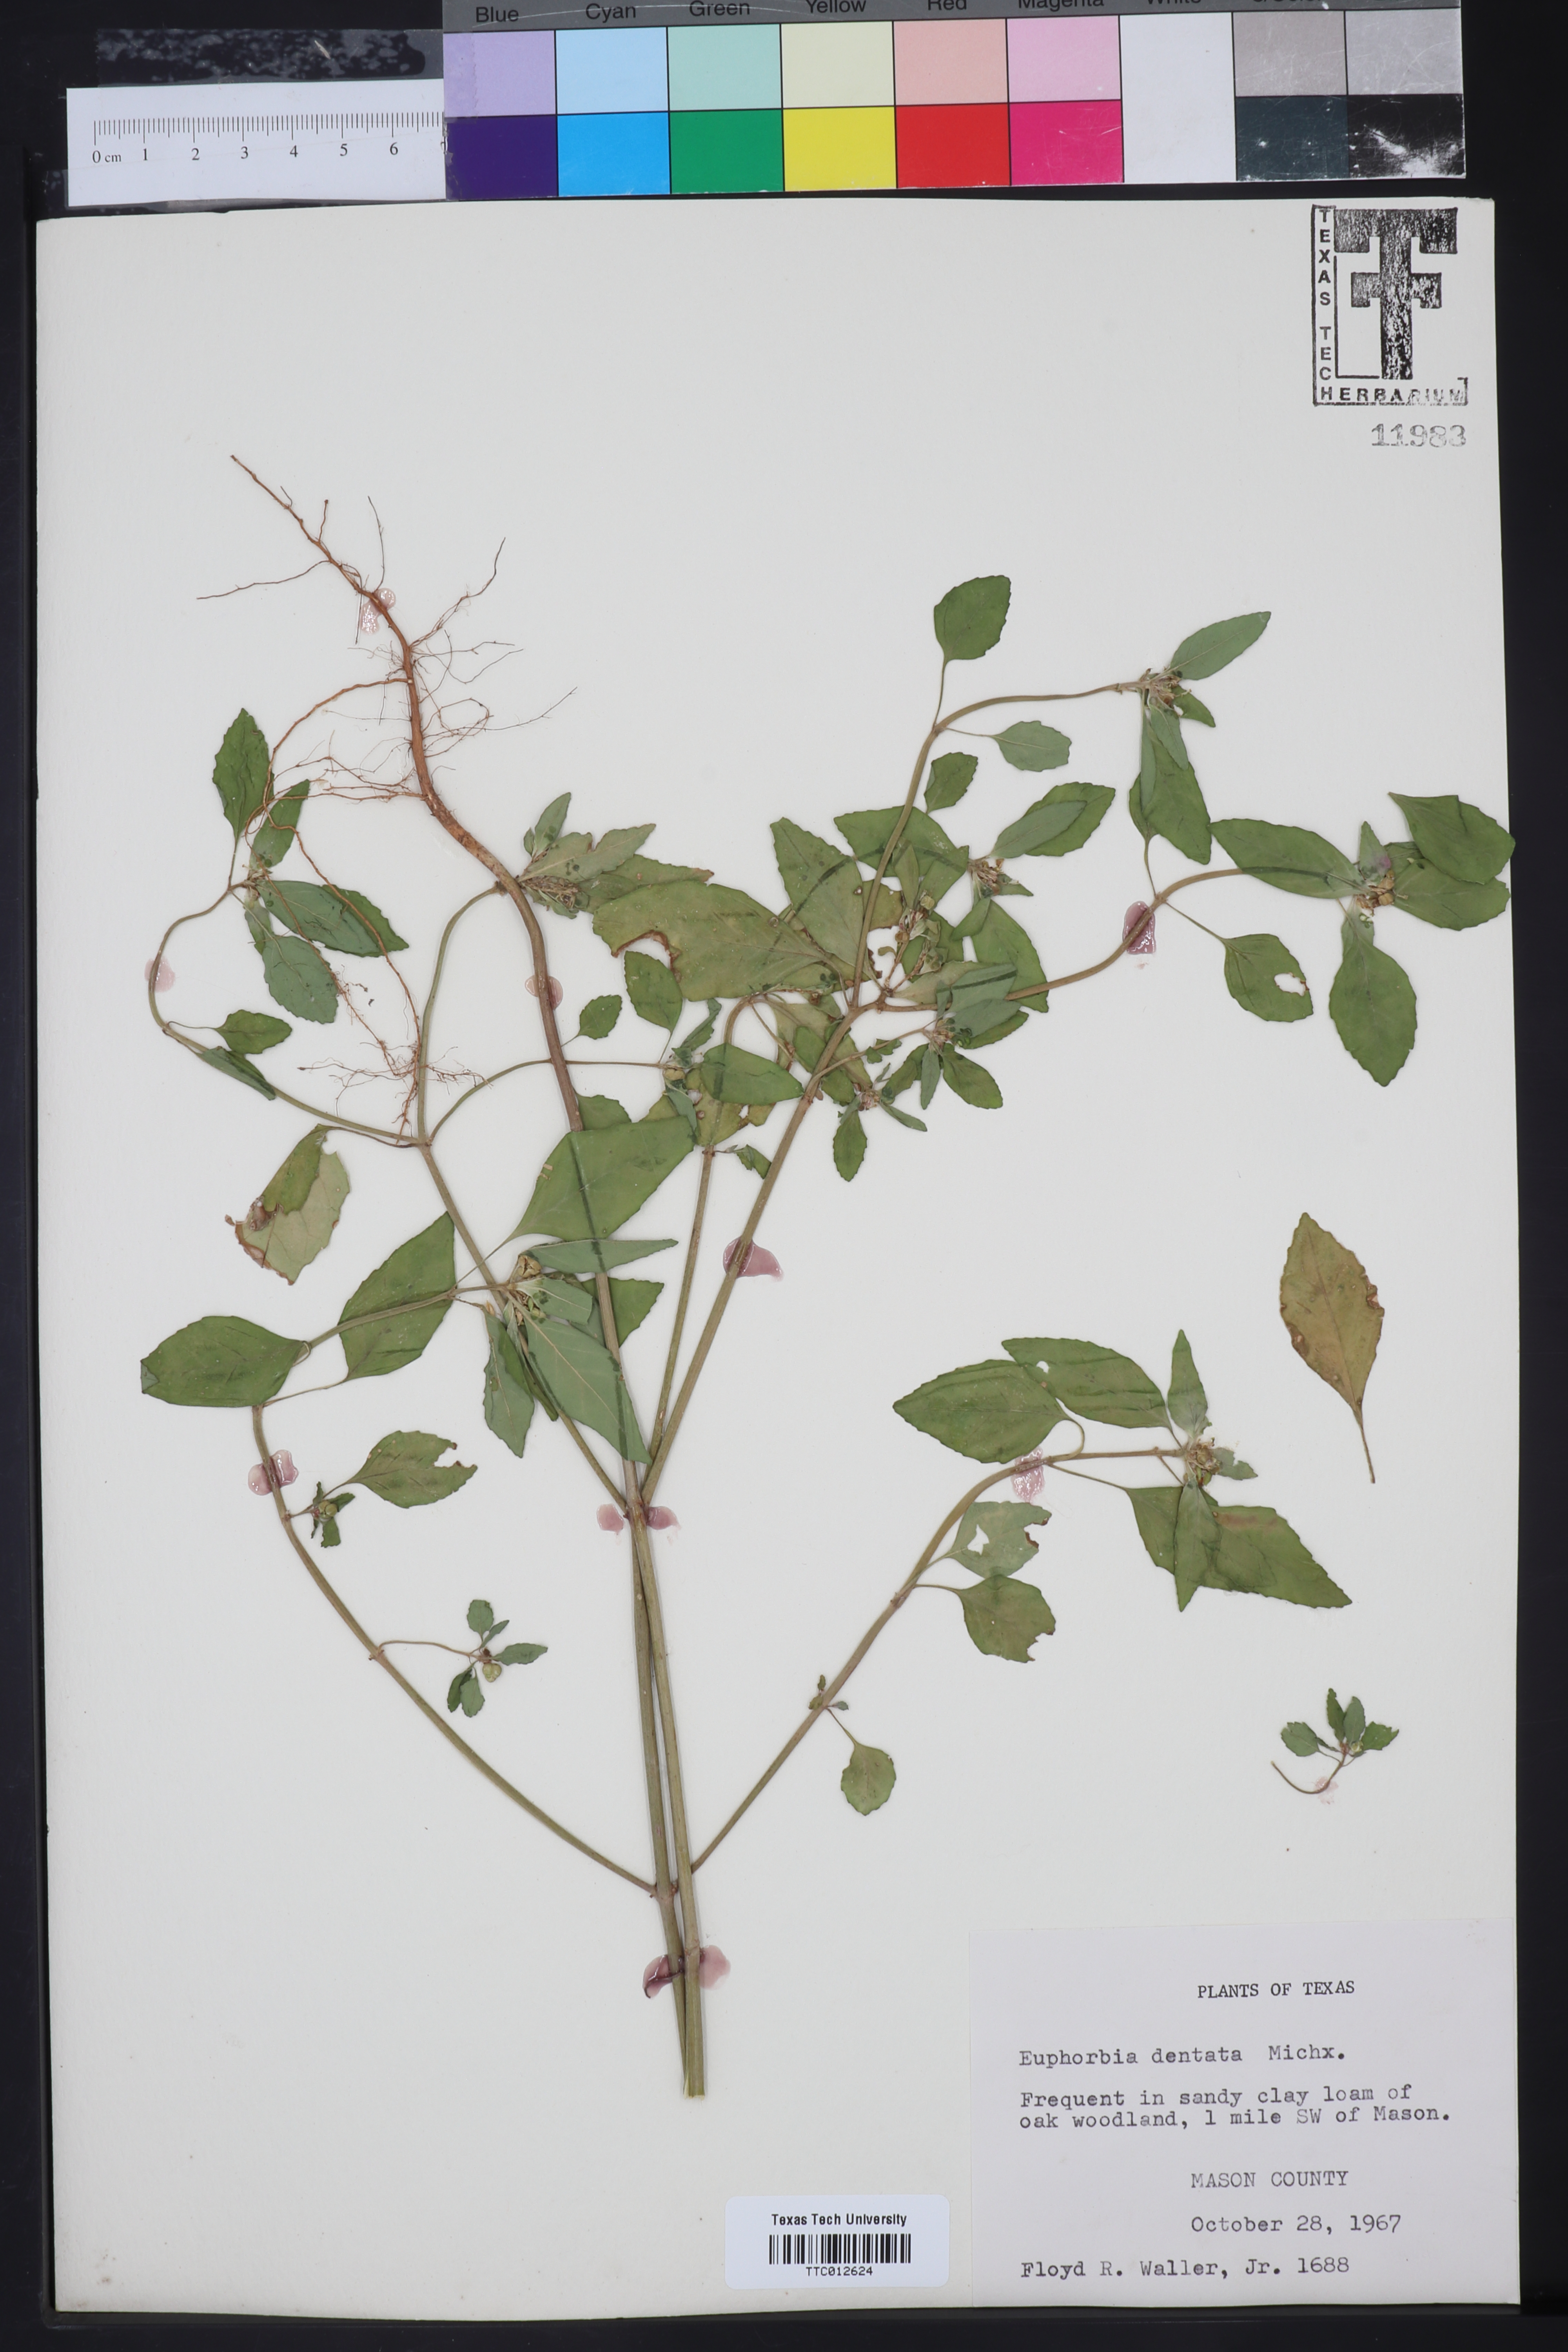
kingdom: Plantae
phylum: Tracheophyta
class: Magnoliopsida
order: Malpighiales
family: Euphorbiaceae
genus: Euphorbia
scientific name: Euphorbia dentata
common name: Dentate spurge
